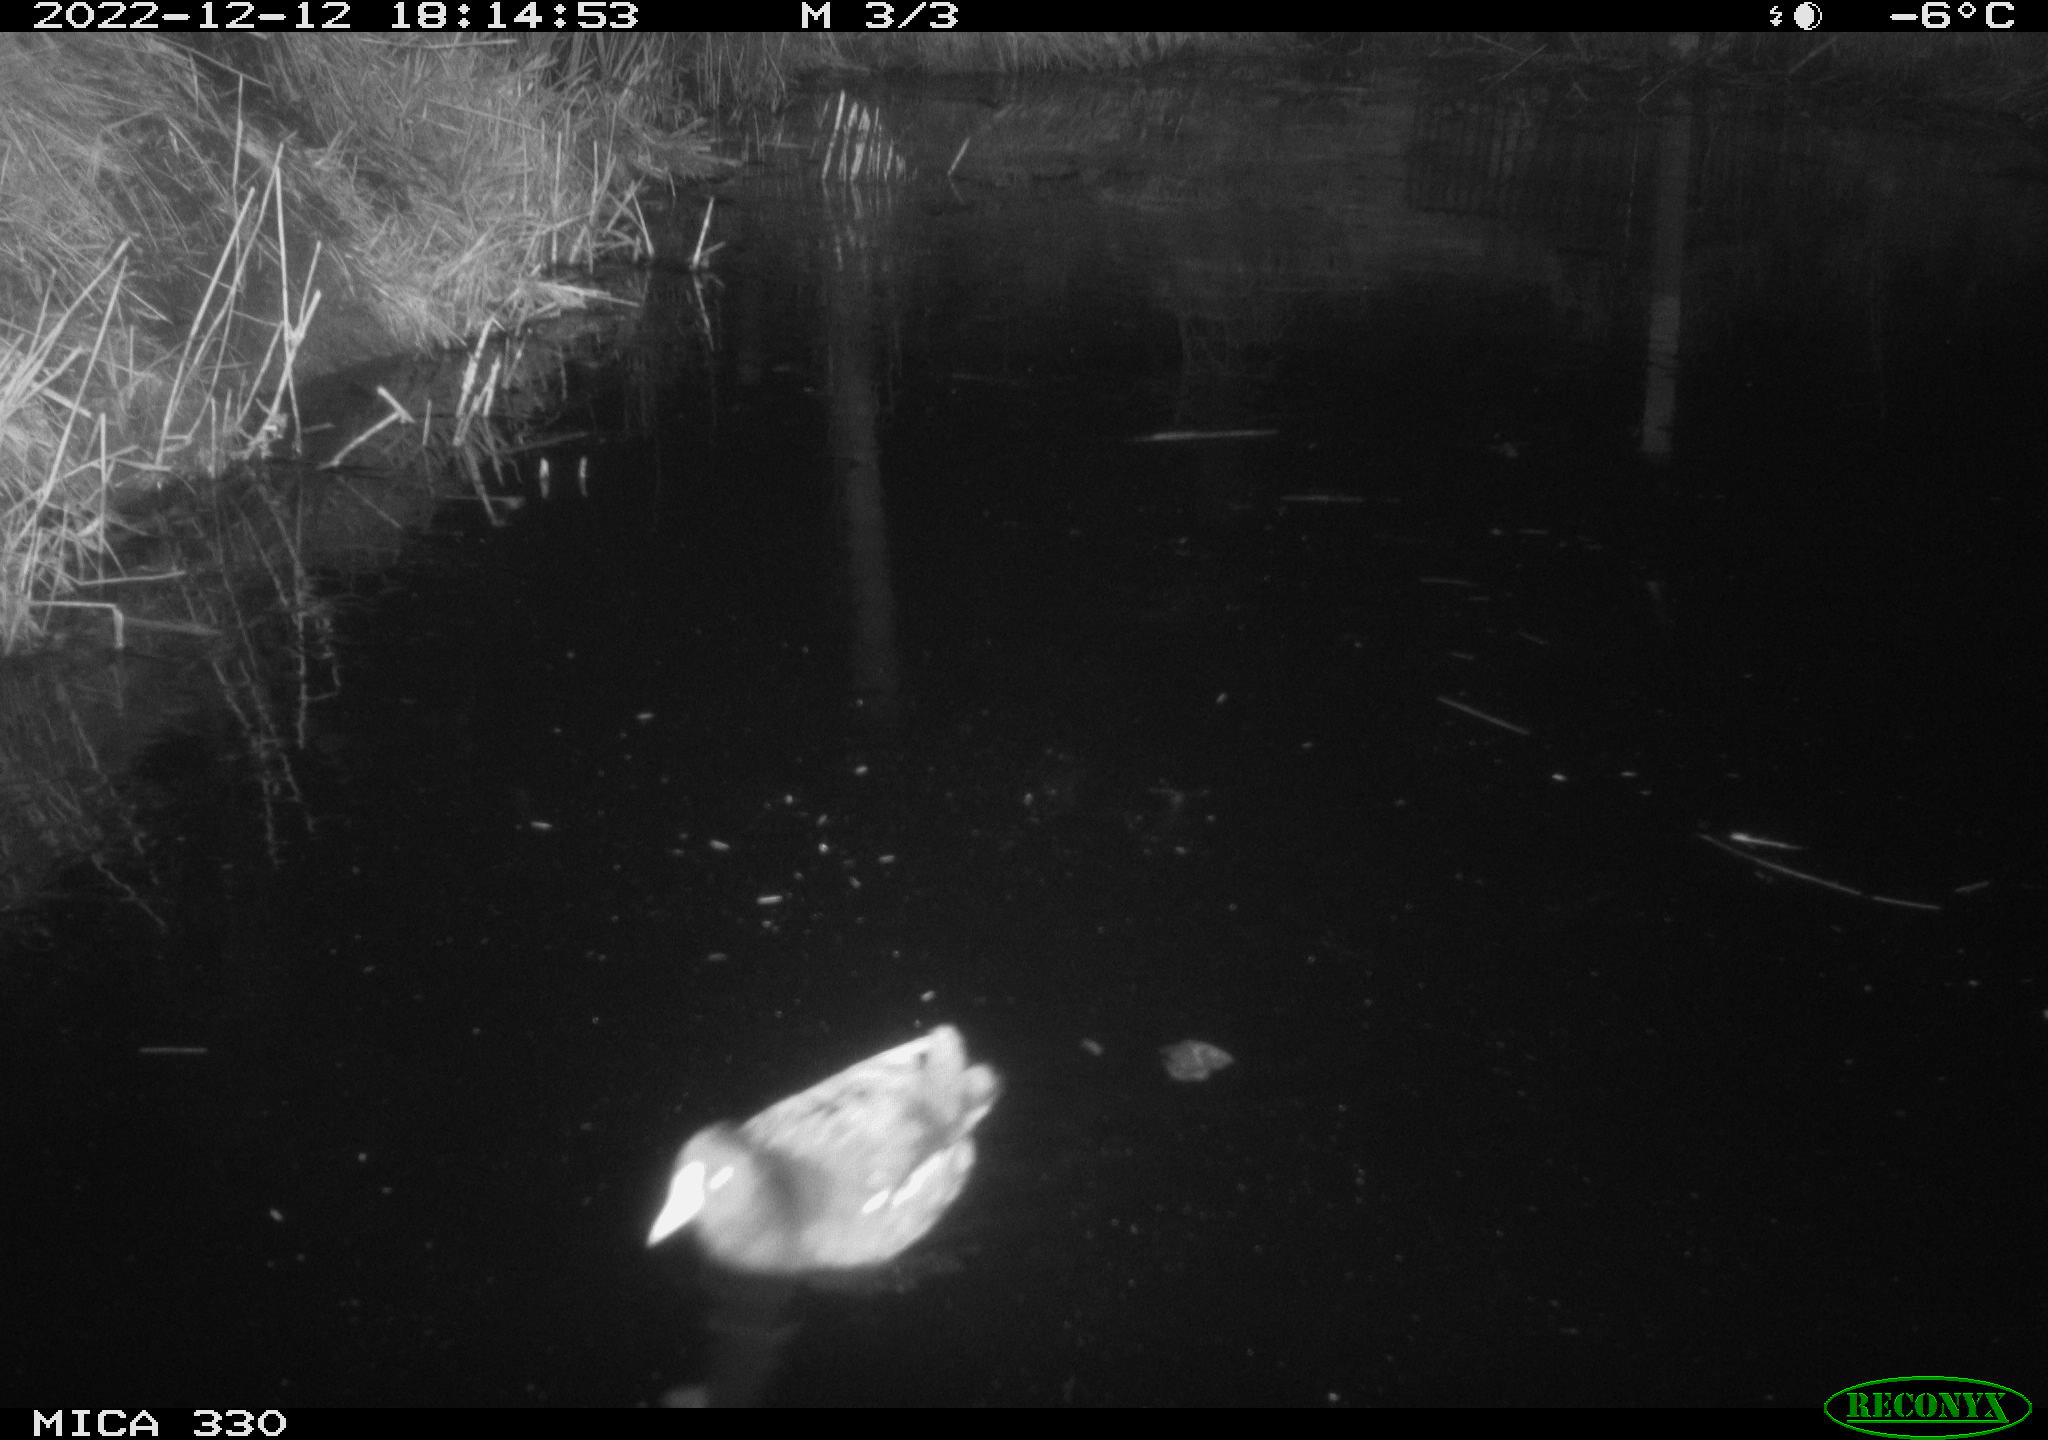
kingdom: Animalia
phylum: Chordata
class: Aves
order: Gruiformes
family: Rallidae
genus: Gallinula
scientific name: Gallinula chloropus
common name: Common moorhen
